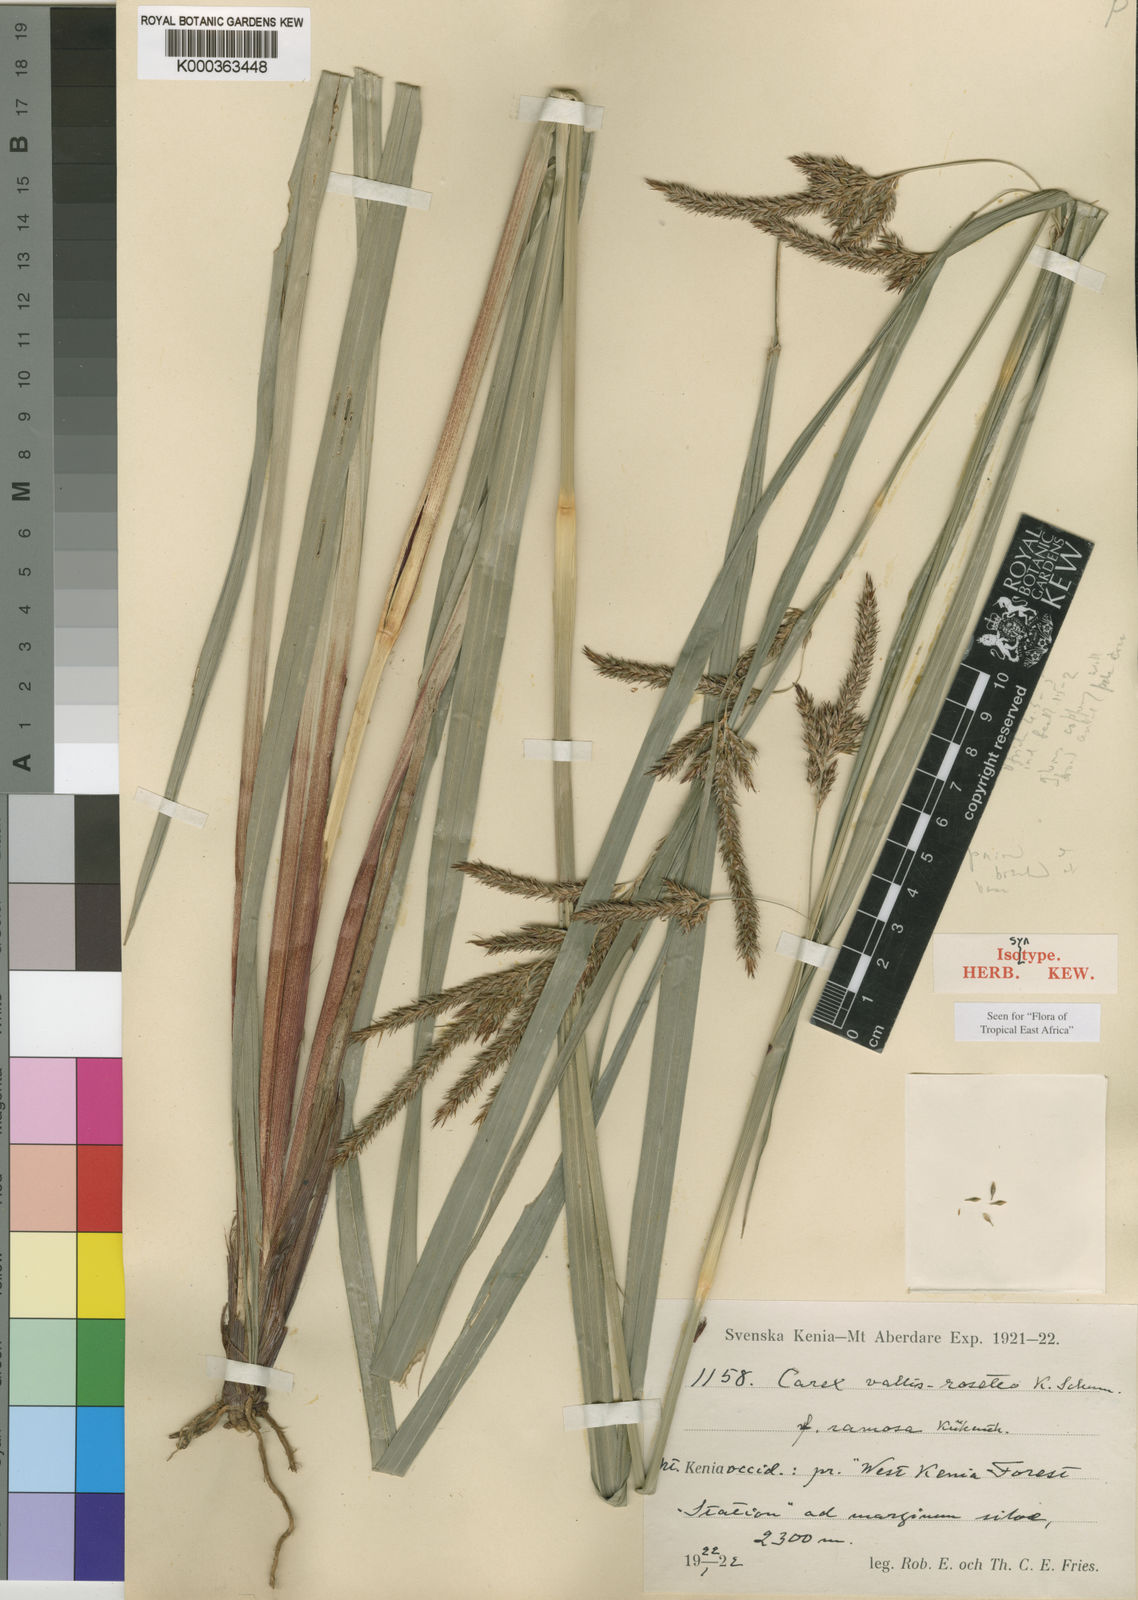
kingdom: Plantae
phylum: Tracheophyta
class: Liliopsida
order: Poales
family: Cyperaceae
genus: Carex
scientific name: Carex vallis-rosetto
